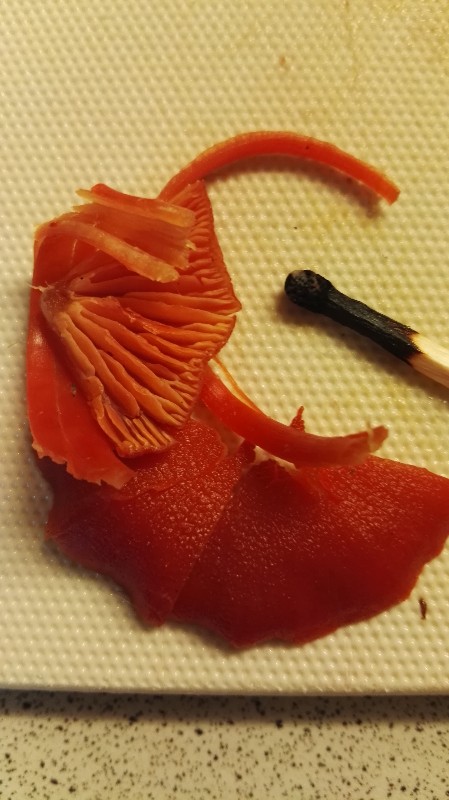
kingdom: Fungi
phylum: Basidiomycota
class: Agaricomycetes
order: Agaricales
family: Hygrophoraceae
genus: Hygrocybe
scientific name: Hygrocybe miniata
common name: mønje-vokshat
